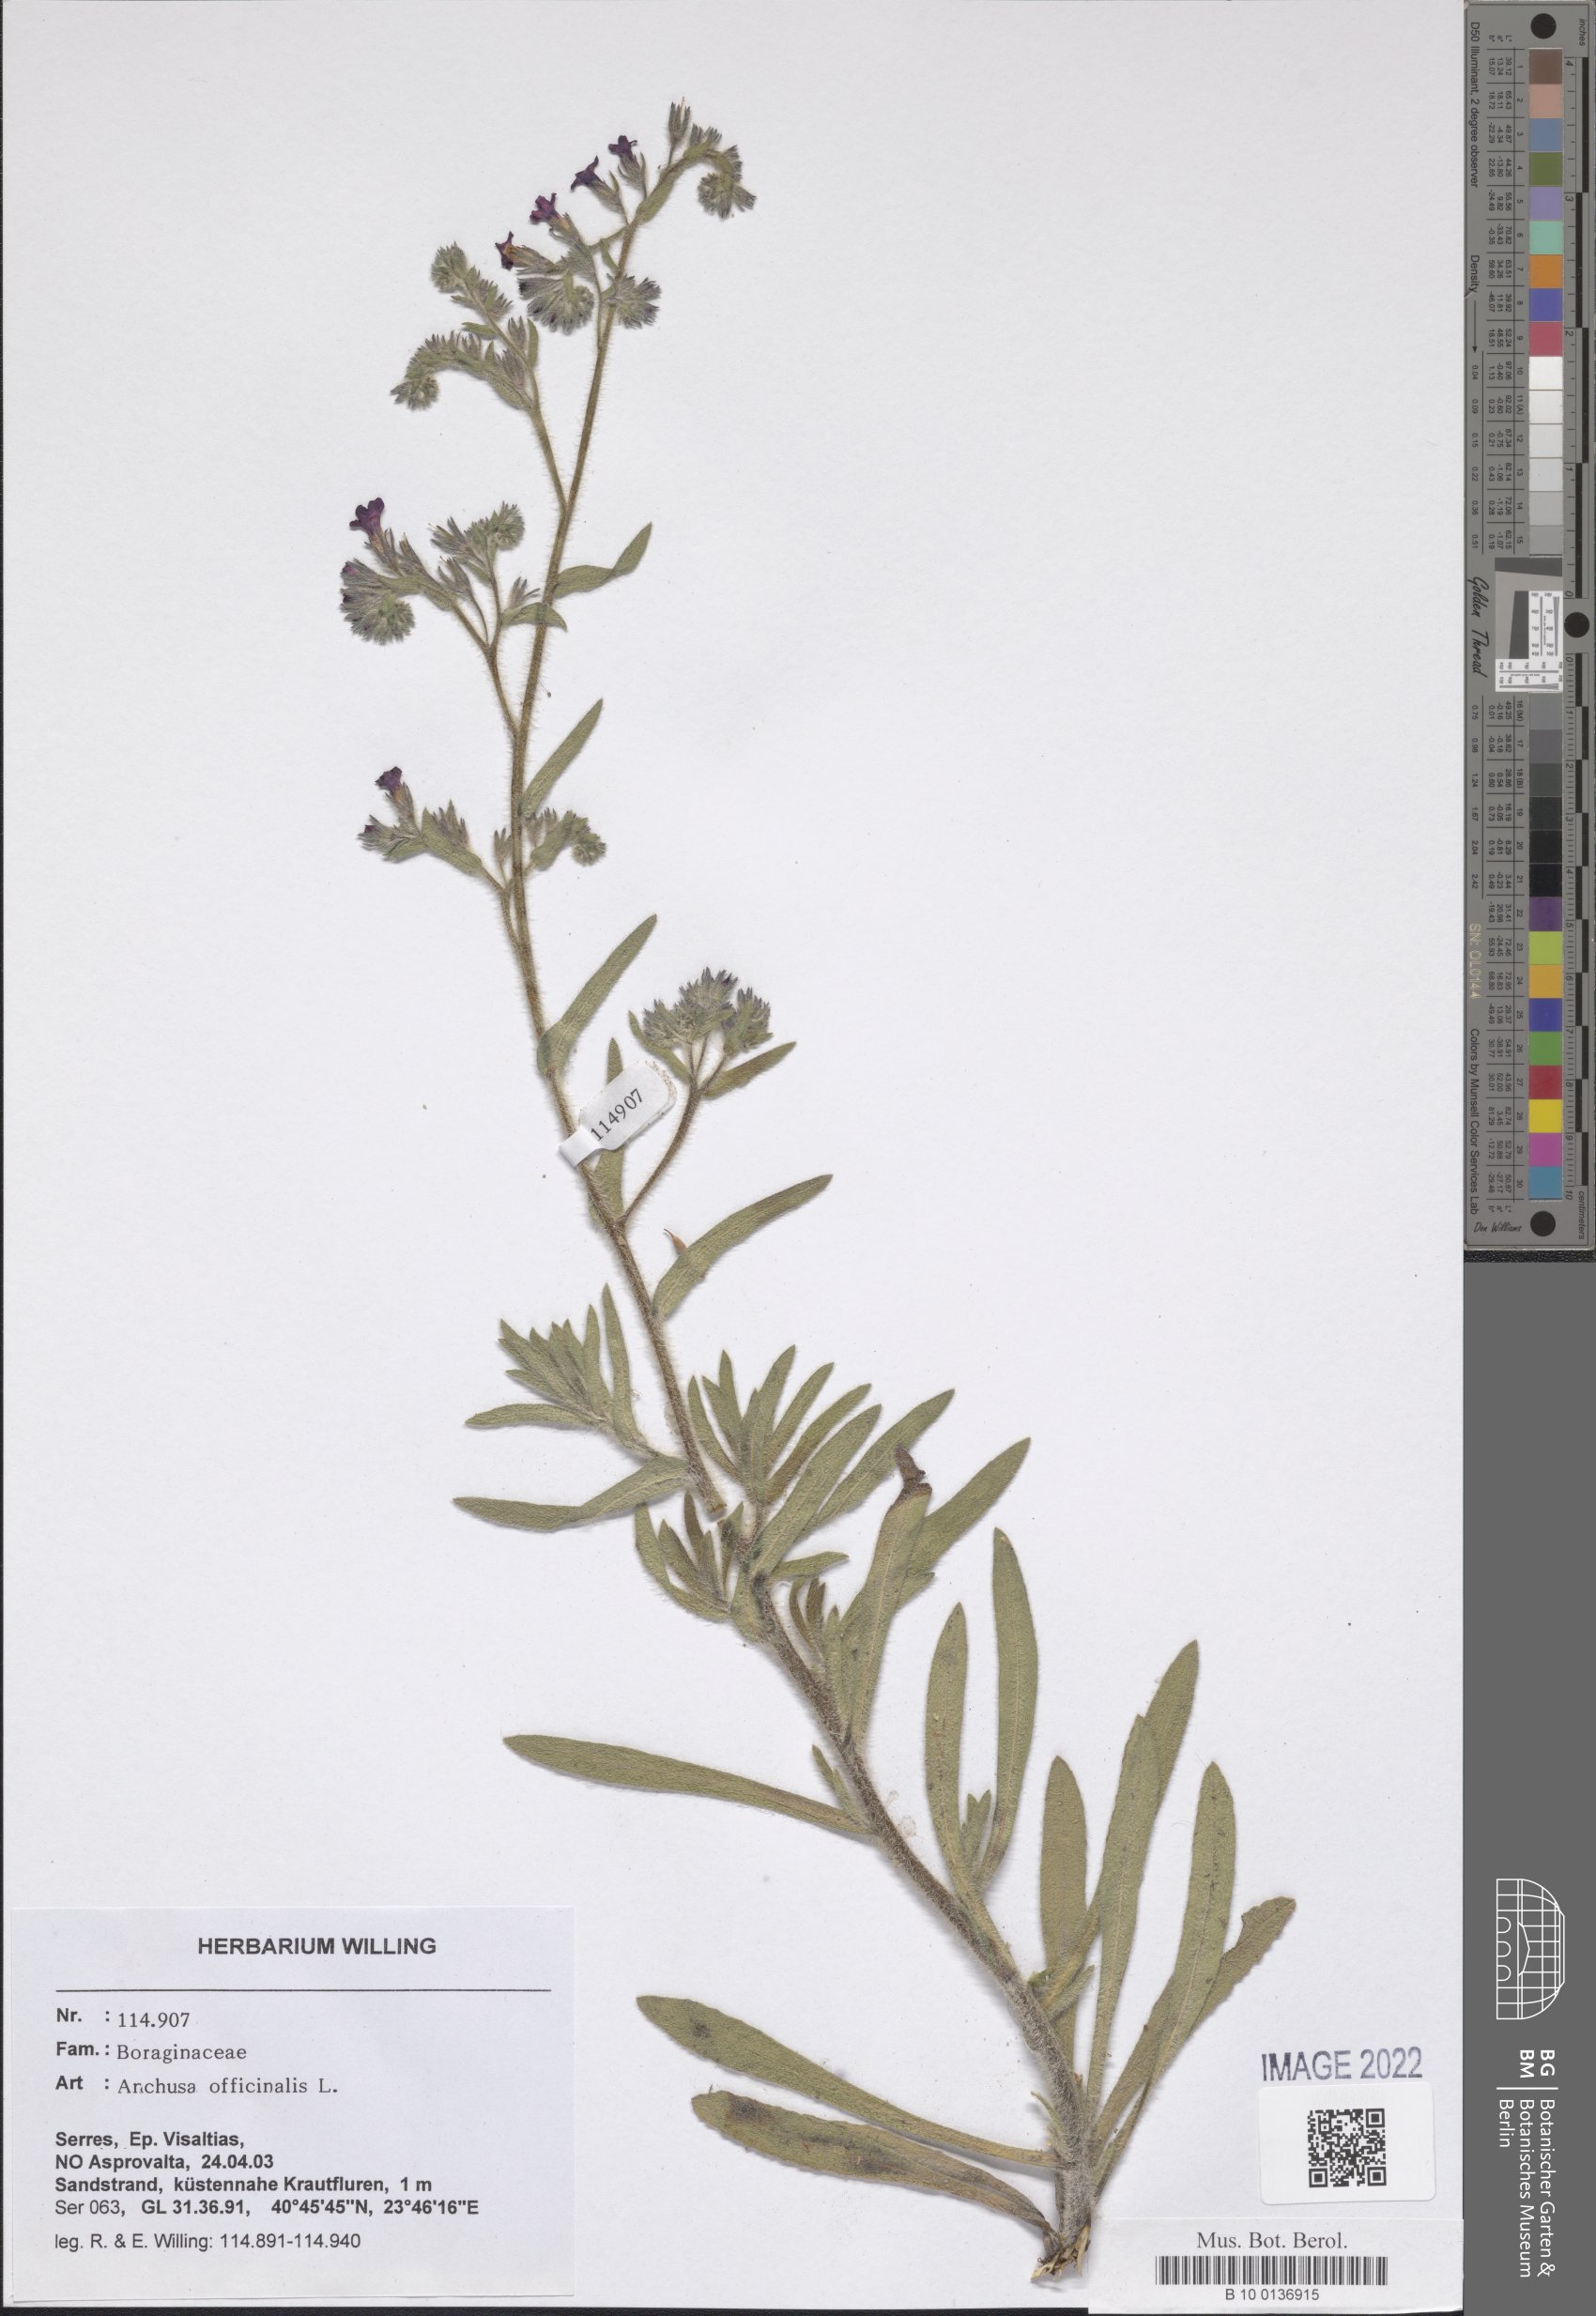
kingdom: Plantae
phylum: Tracheophyta
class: Magnoliopsida
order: Boraginales
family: Boraginaceae
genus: Anchusa
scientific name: Anchusa officinalis
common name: Alkanet
